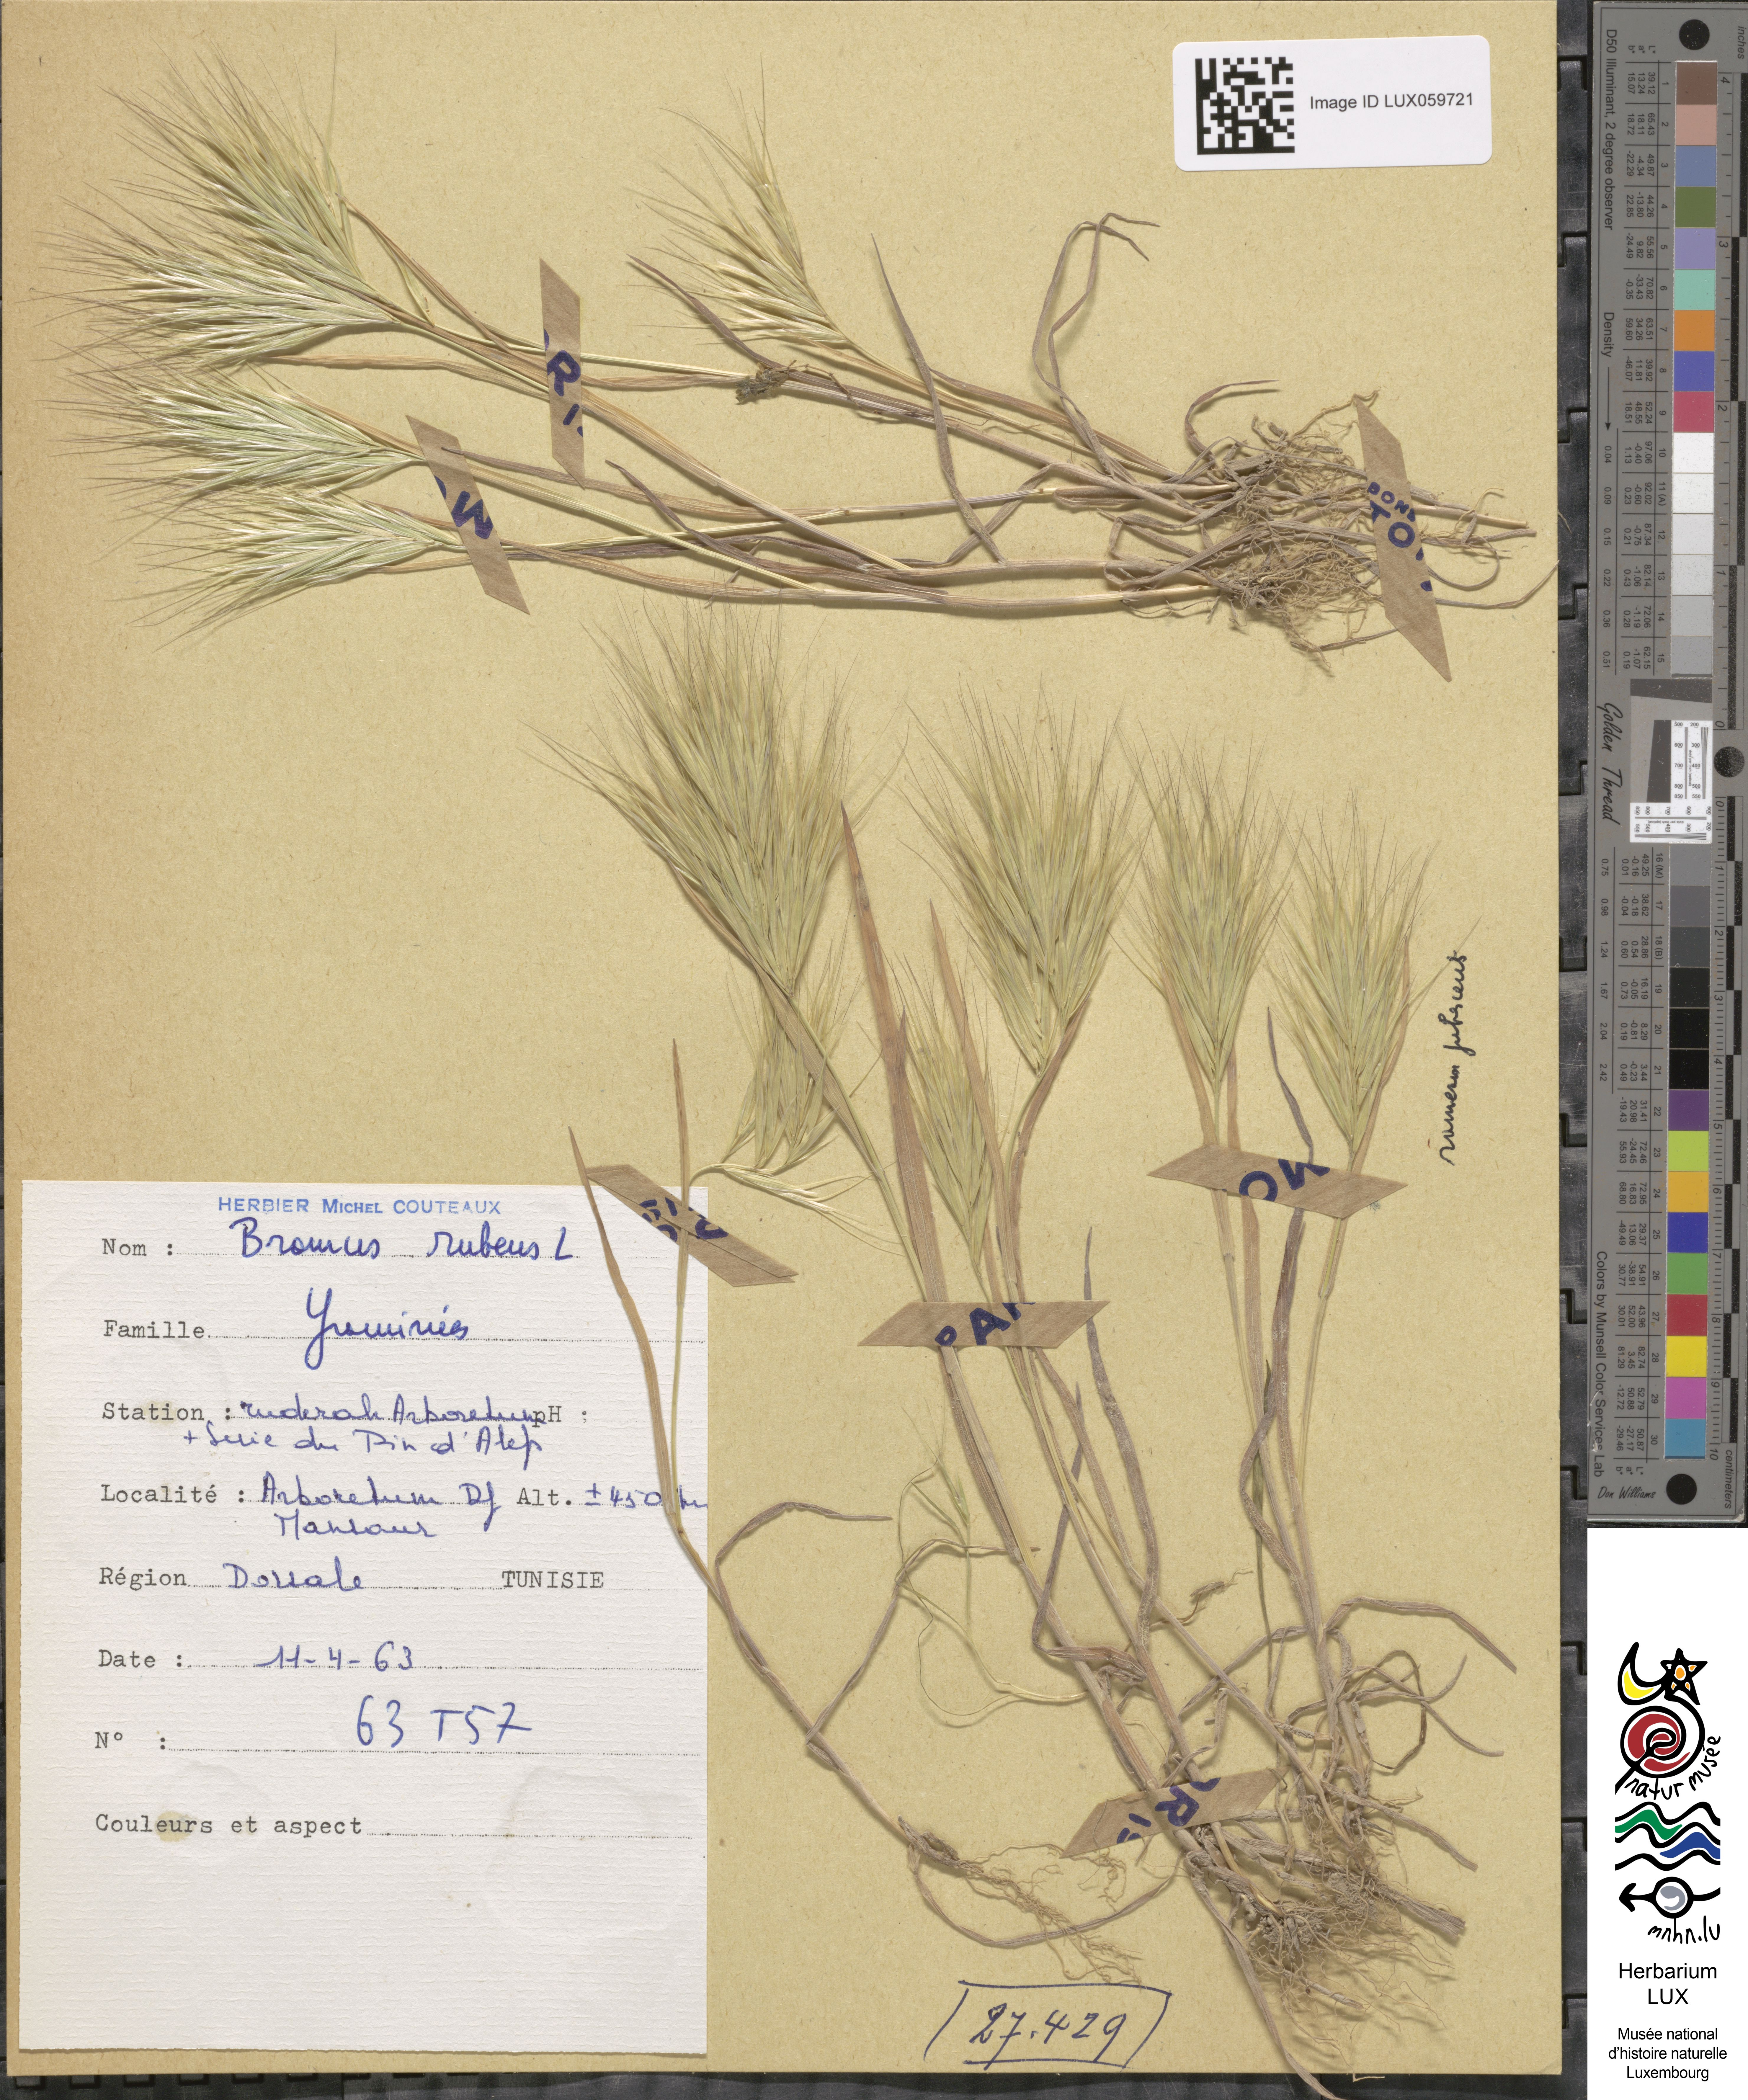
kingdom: Plantae
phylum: Tracheophyta
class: Liliopsida
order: Poales
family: Poaceae
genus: Bromus
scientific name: Bromus rubens
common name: Red brome
